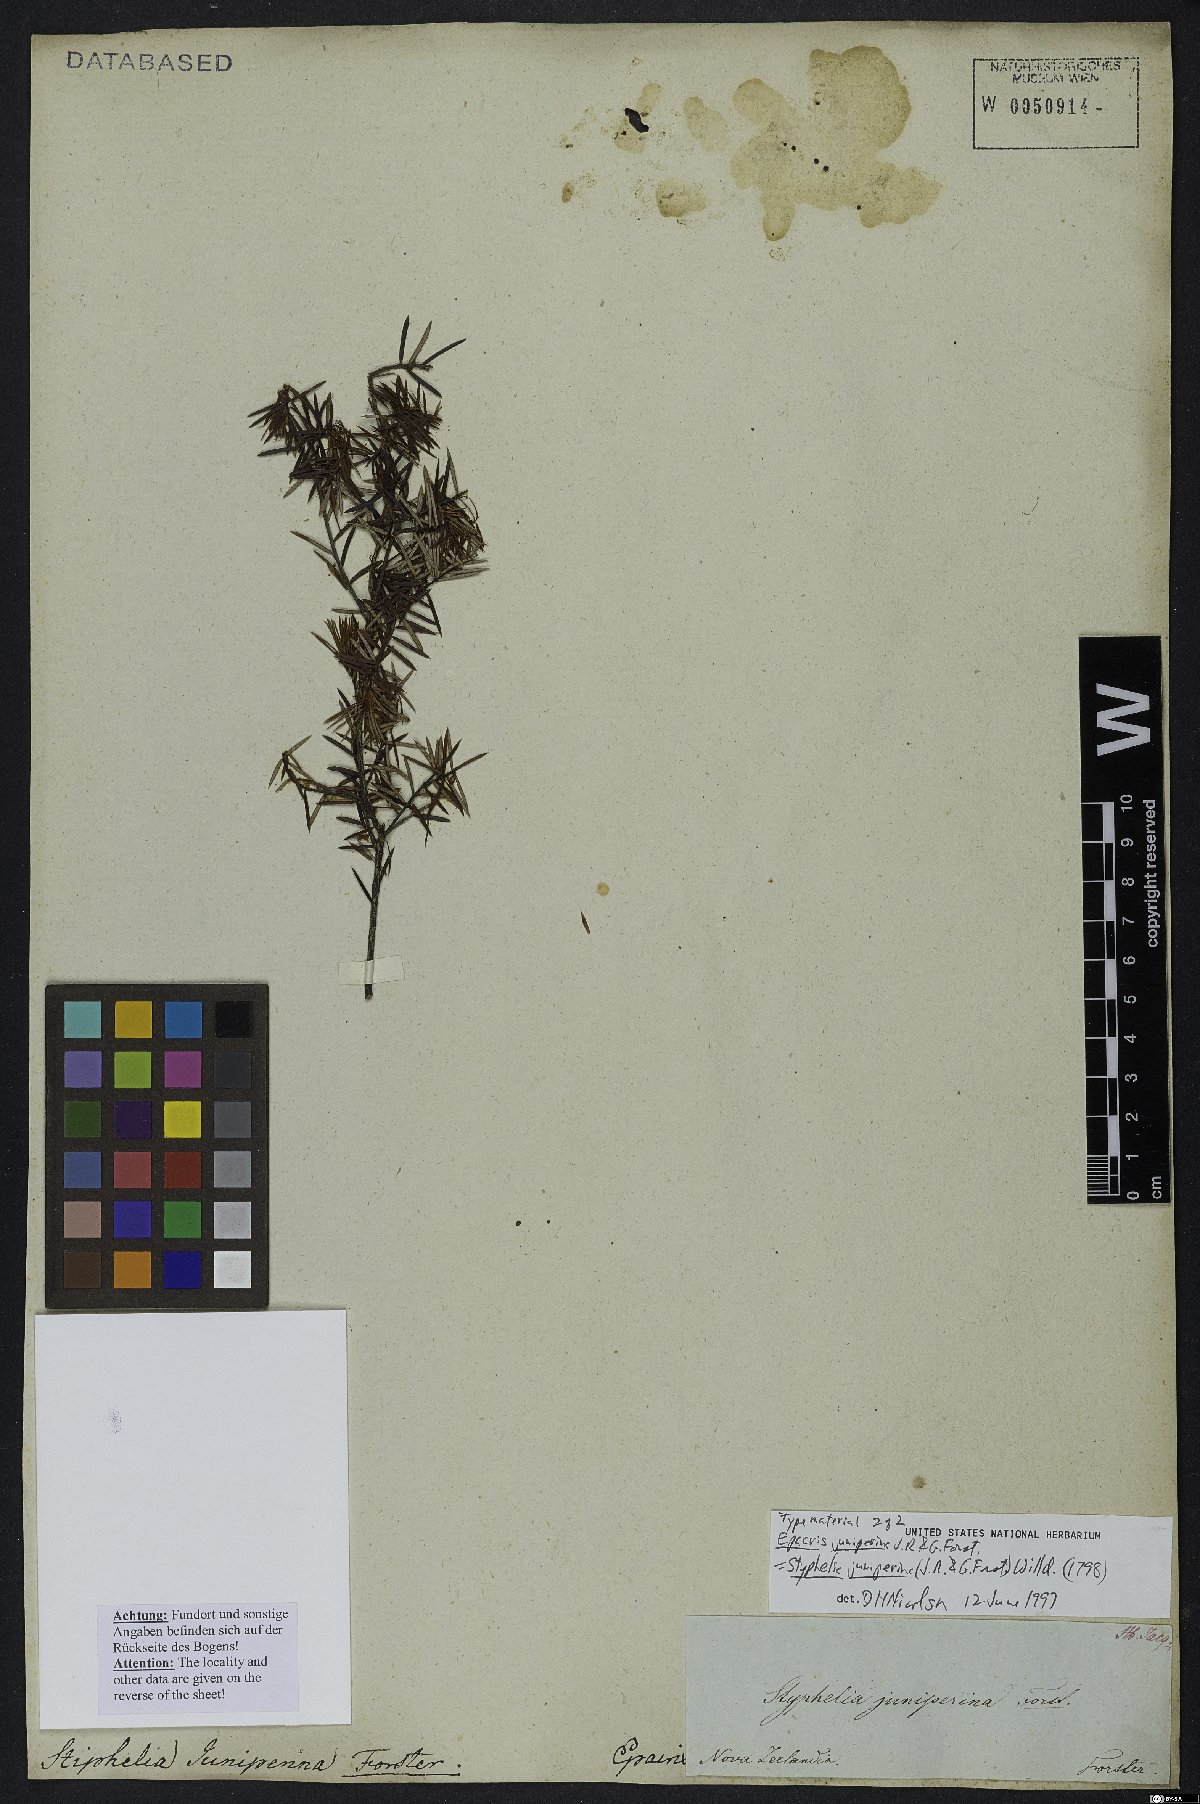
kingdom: Plantae
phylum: Tracheophyta
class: Magnoliopsida
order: Ericales
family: Ericaceae
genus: Leptecophylla
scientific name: Leptecophylla juniperina
